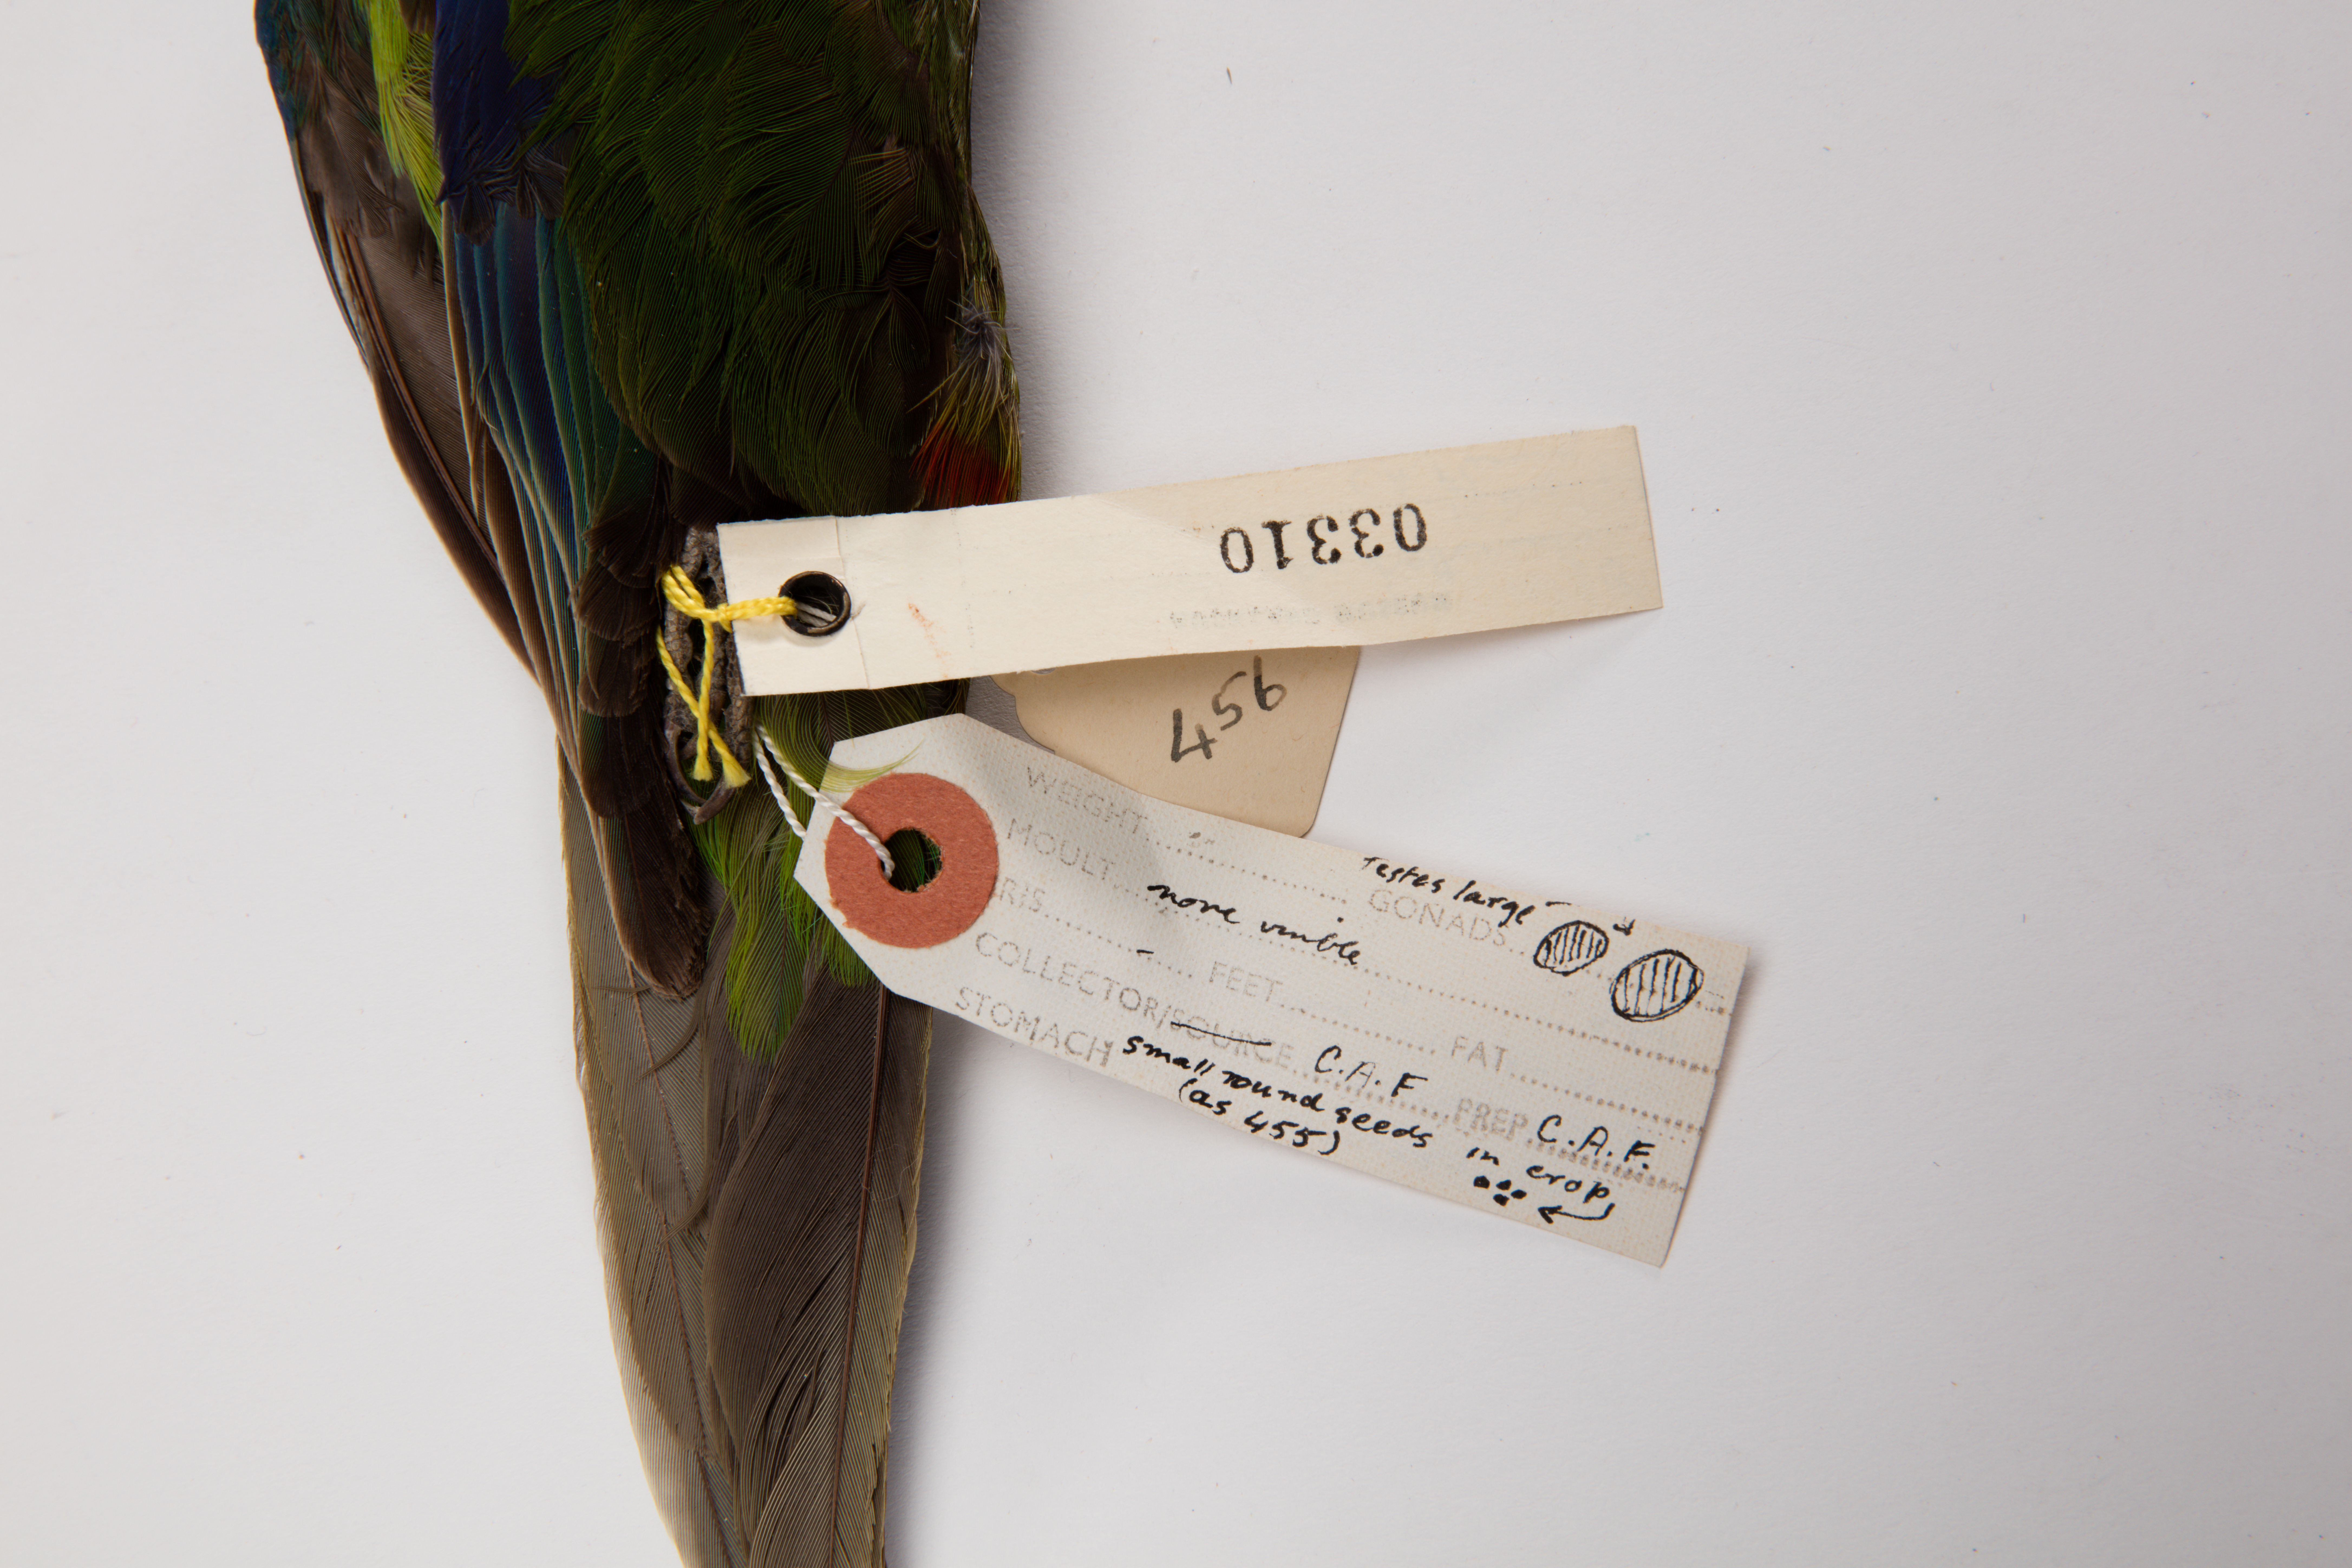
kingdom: Animalia
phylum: Chordata
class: Aves
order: Psittaciformes
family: Psittacidae
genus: Cyanoramphus
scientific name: Cyanoramphus novaezelandiae
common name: Red-fronted parakeet
